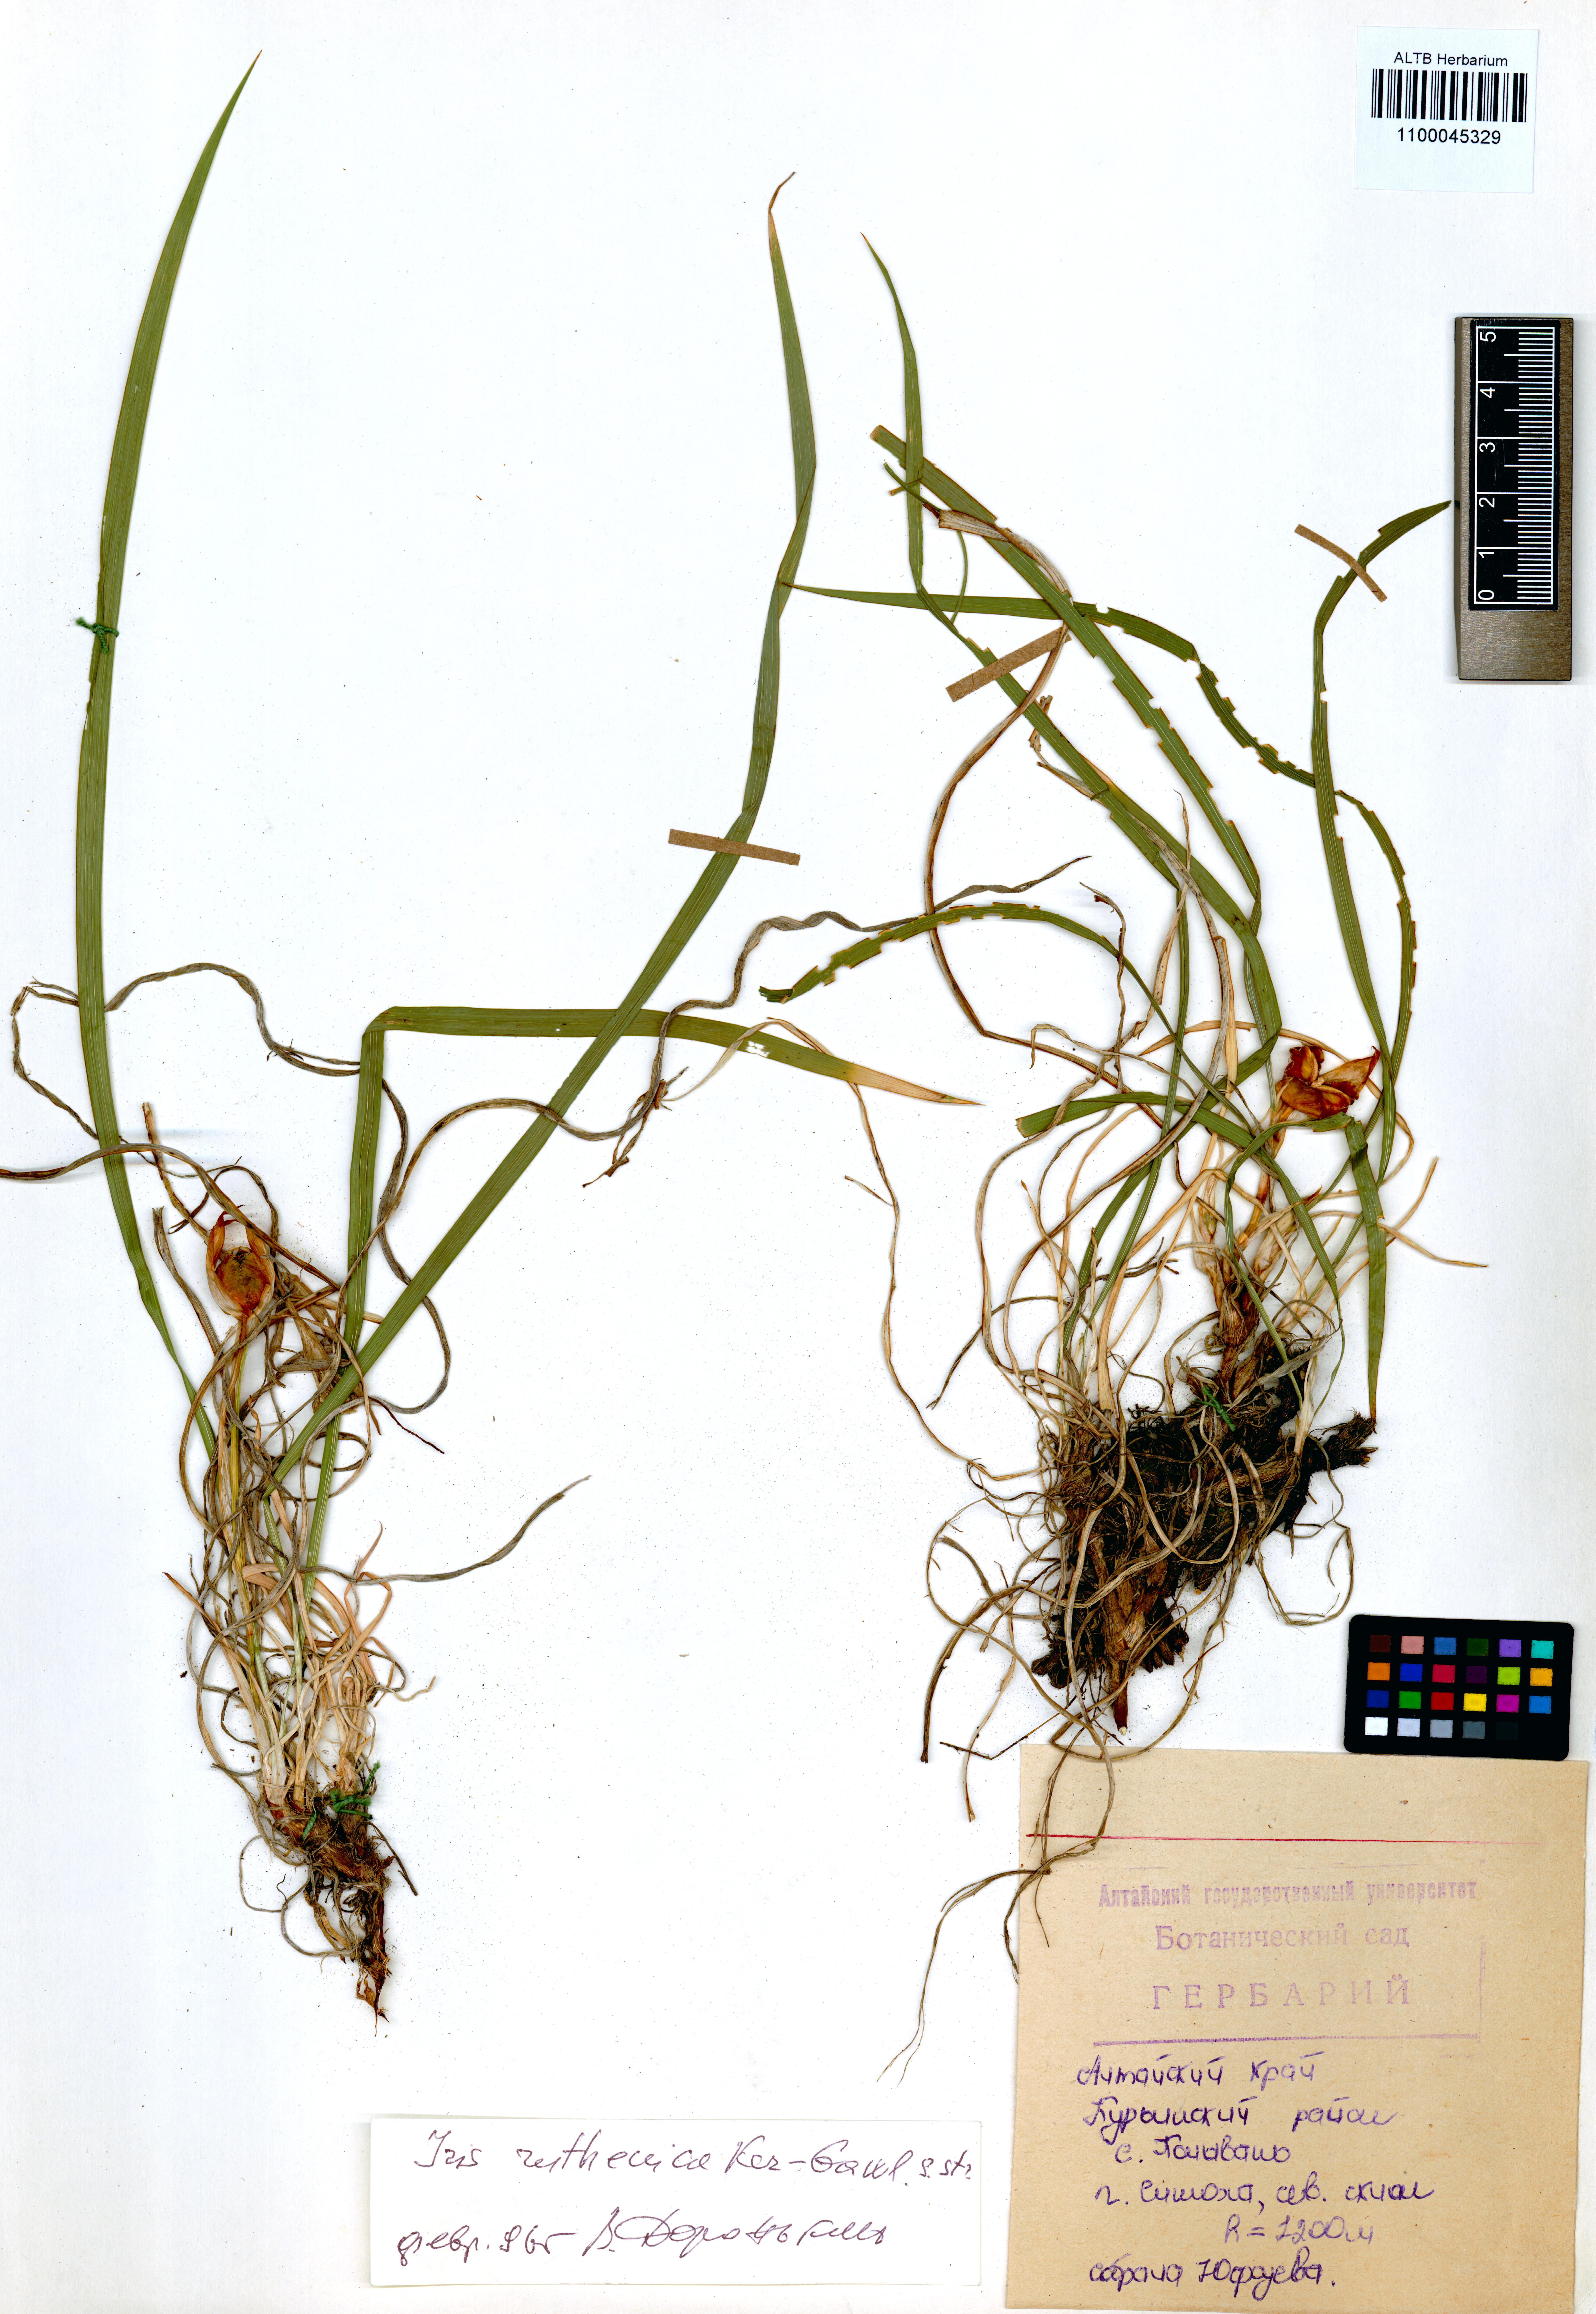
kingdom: Plantae
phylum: Tracheophyta
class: Liliopsida
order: Asparagales
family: Iridaceae
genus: Iris
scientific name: Iris ruthenica
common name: Purple-bract iris
